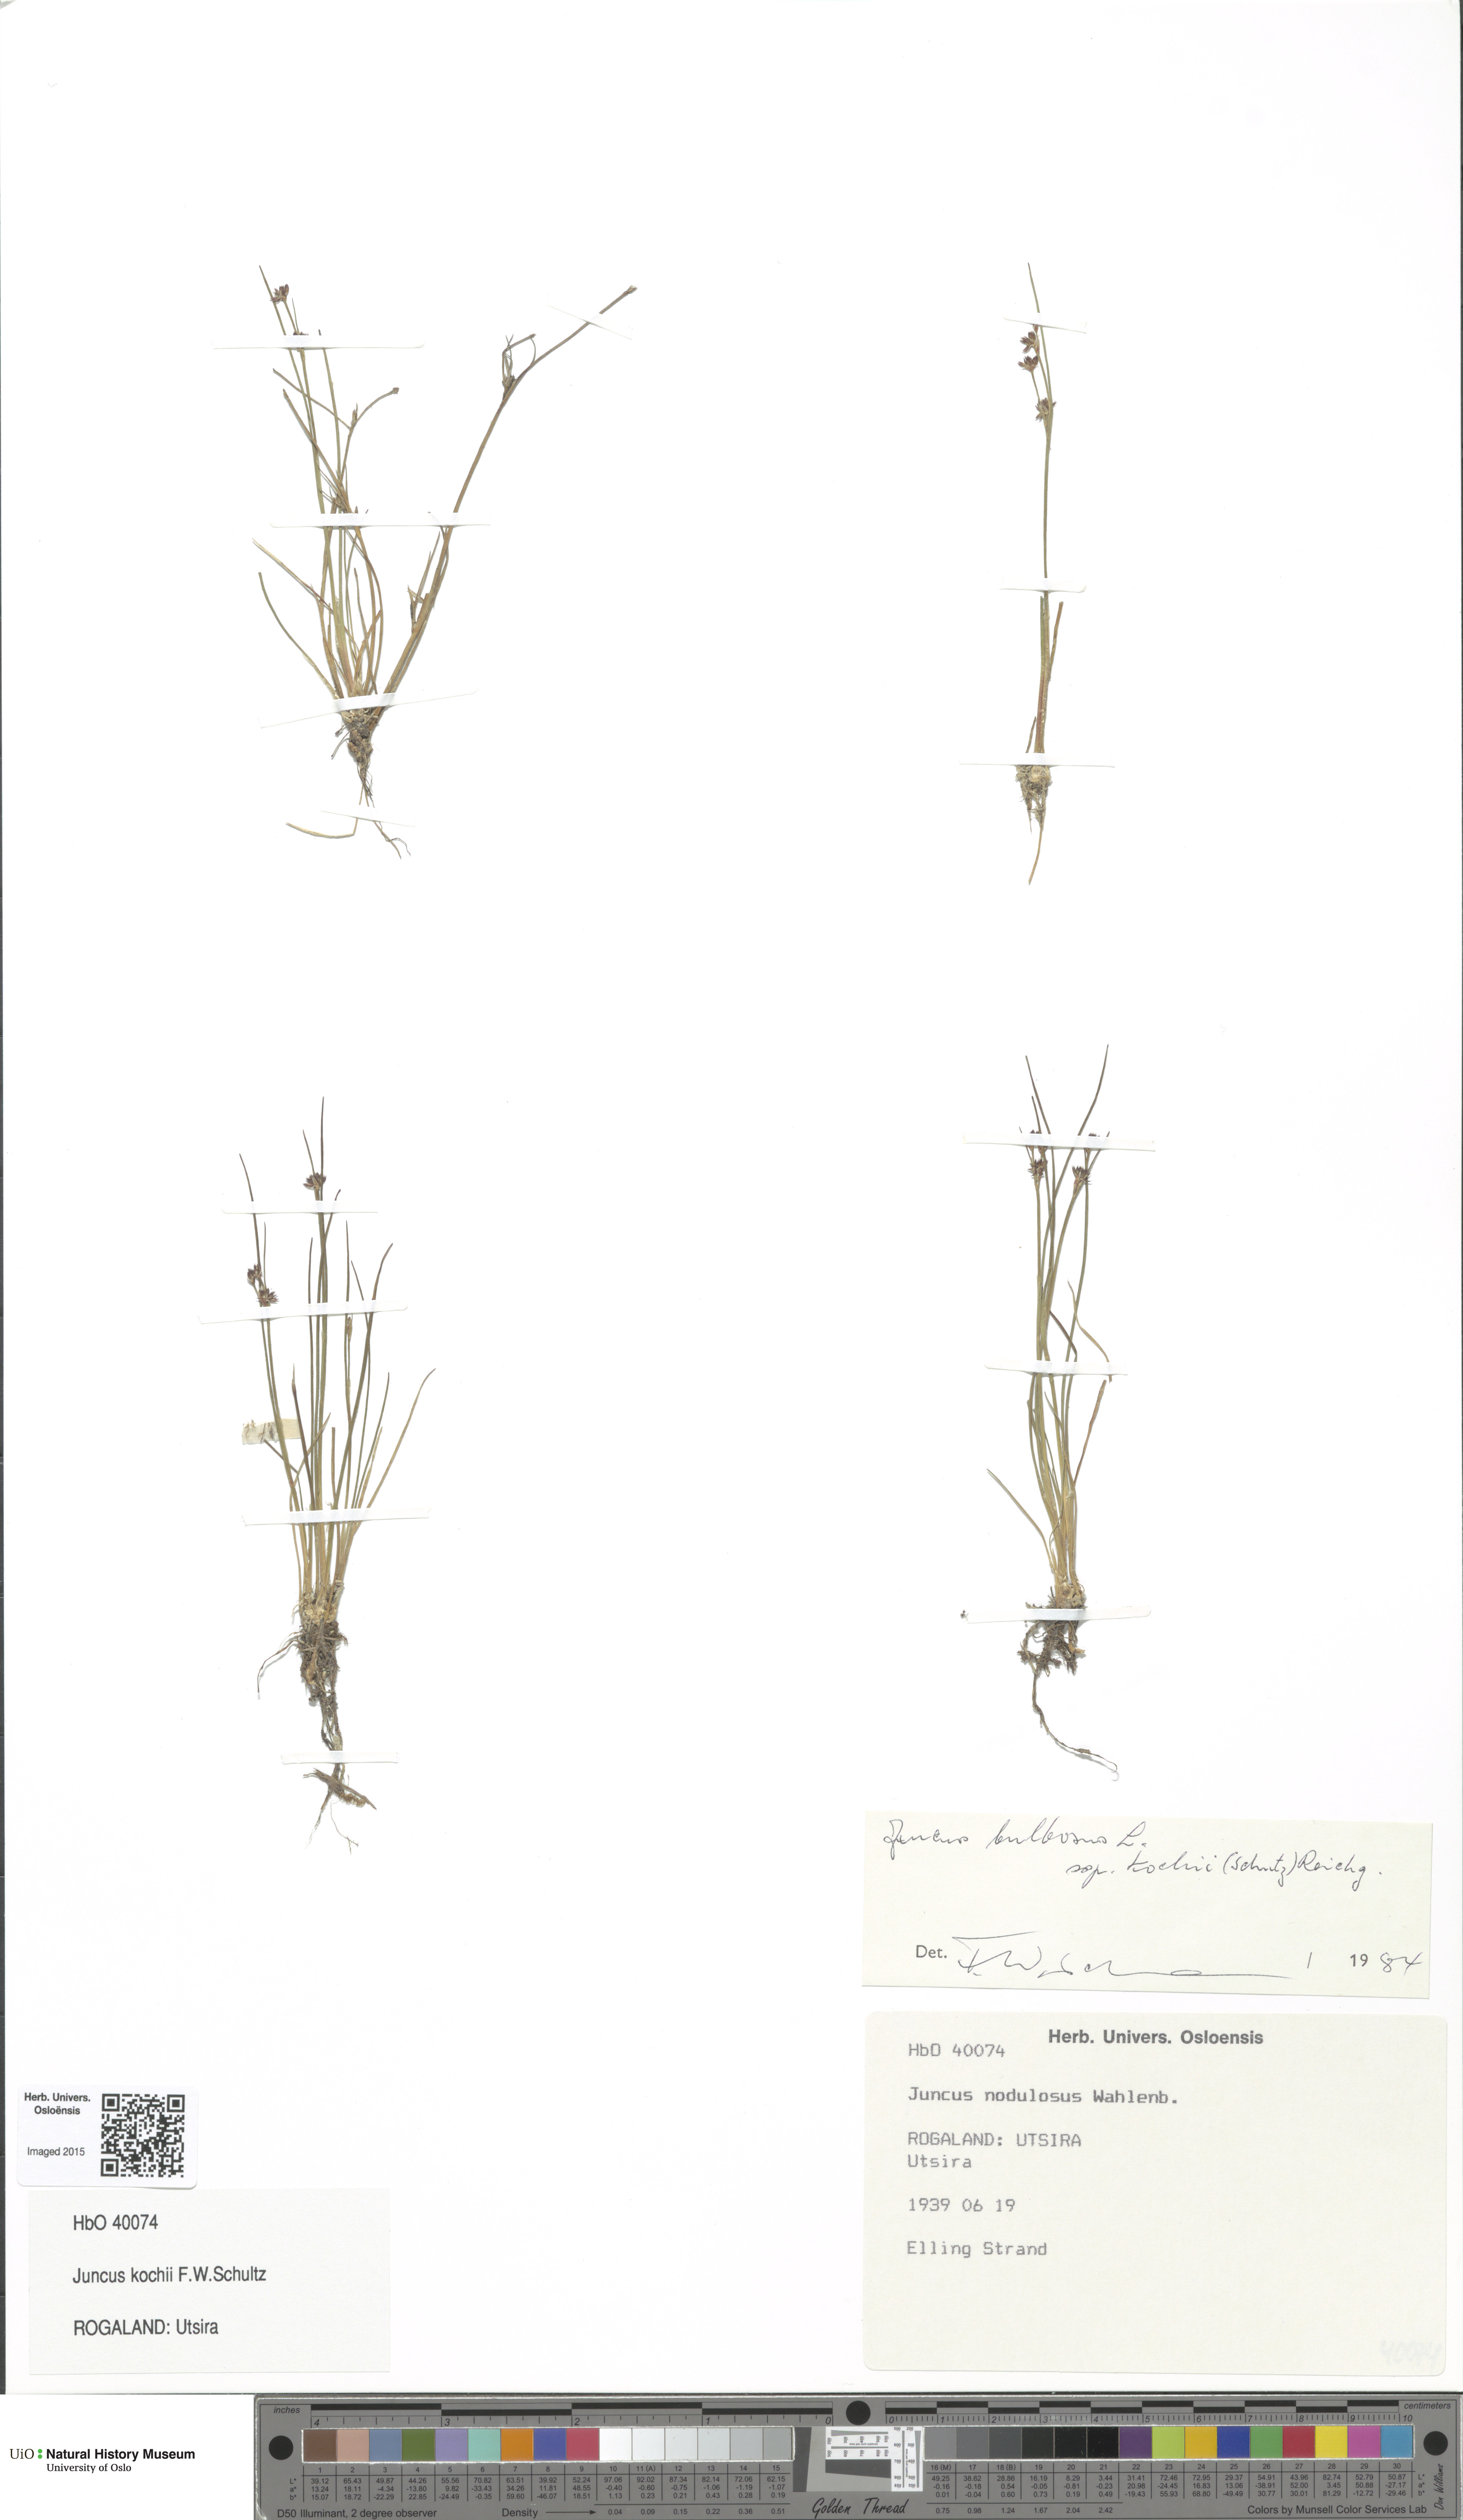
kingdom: Plantae
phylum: Tracheophyta
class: Liliopsida
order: Poales
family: Juncaceae
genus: Juncus
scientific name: Juncus bulbosus
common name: Bulbous rush
